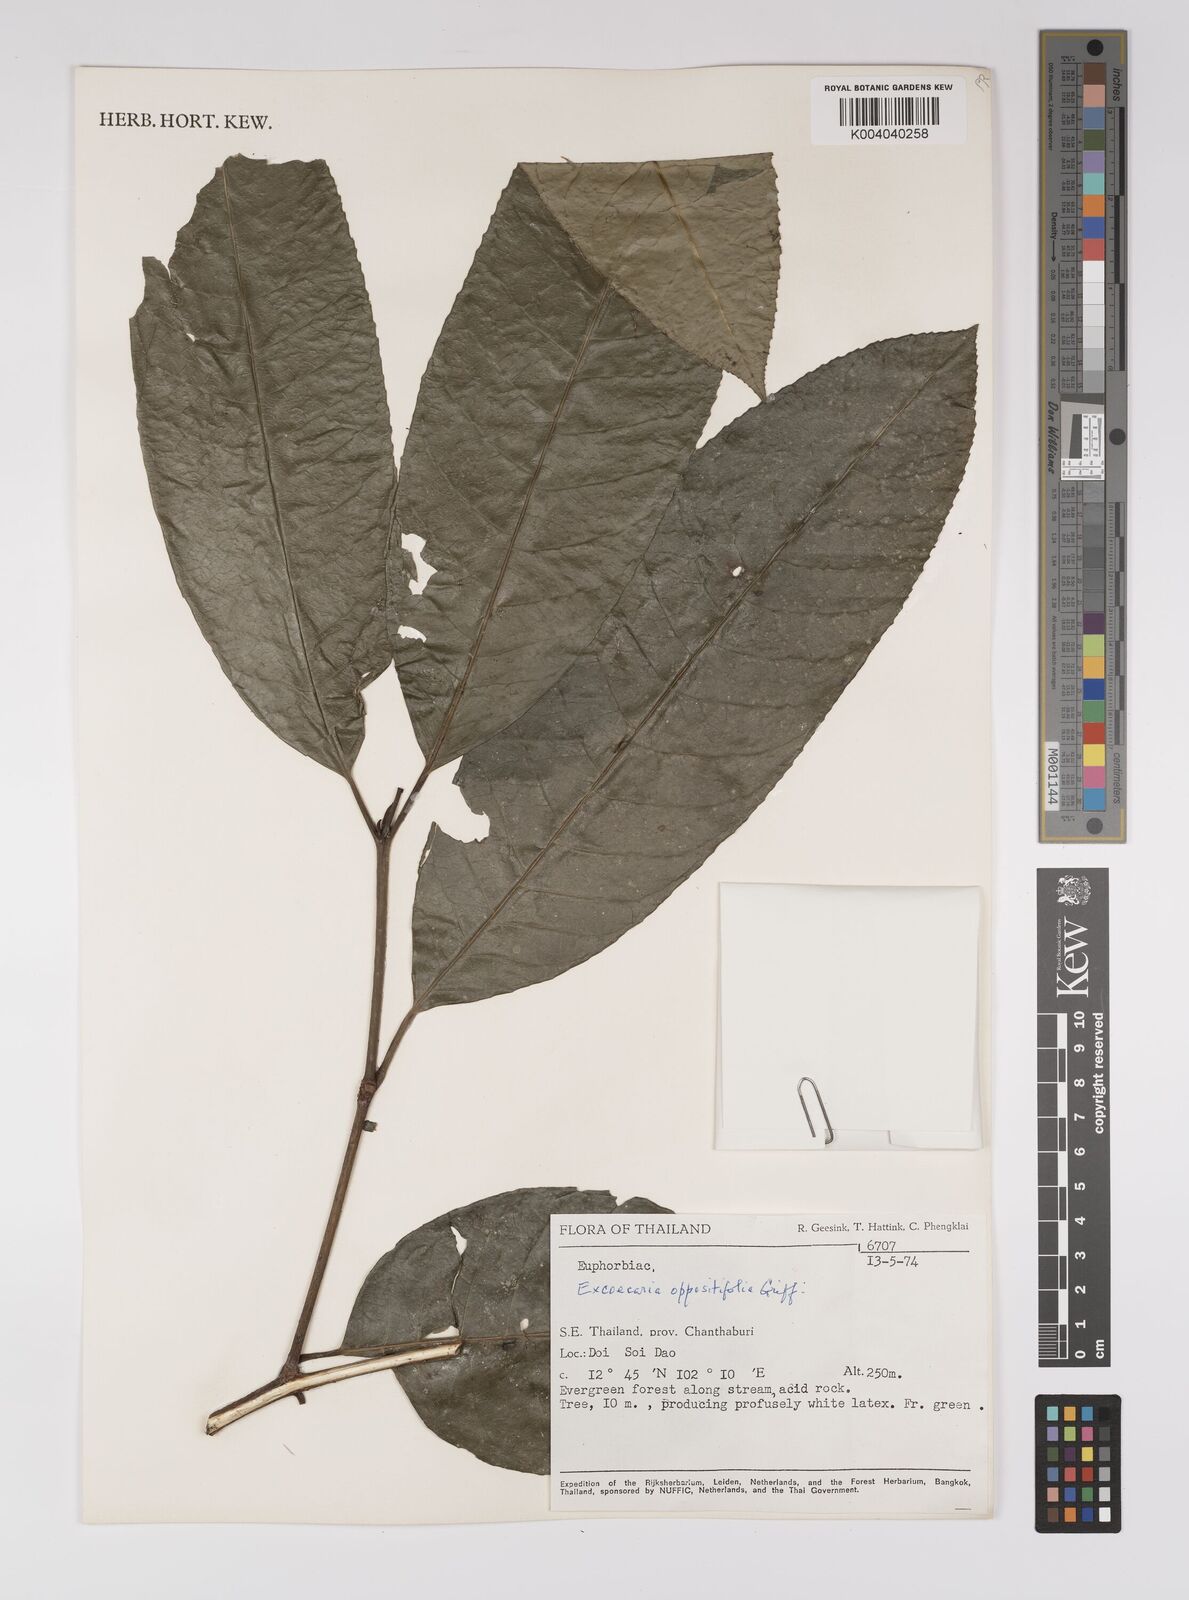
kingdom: Plantae
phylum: Tracheophyta
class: Magnoliopsida
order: Malpighiales
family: Euphorbiaceae
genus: Excoecaria
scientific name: Excoecaria oppositifolia
